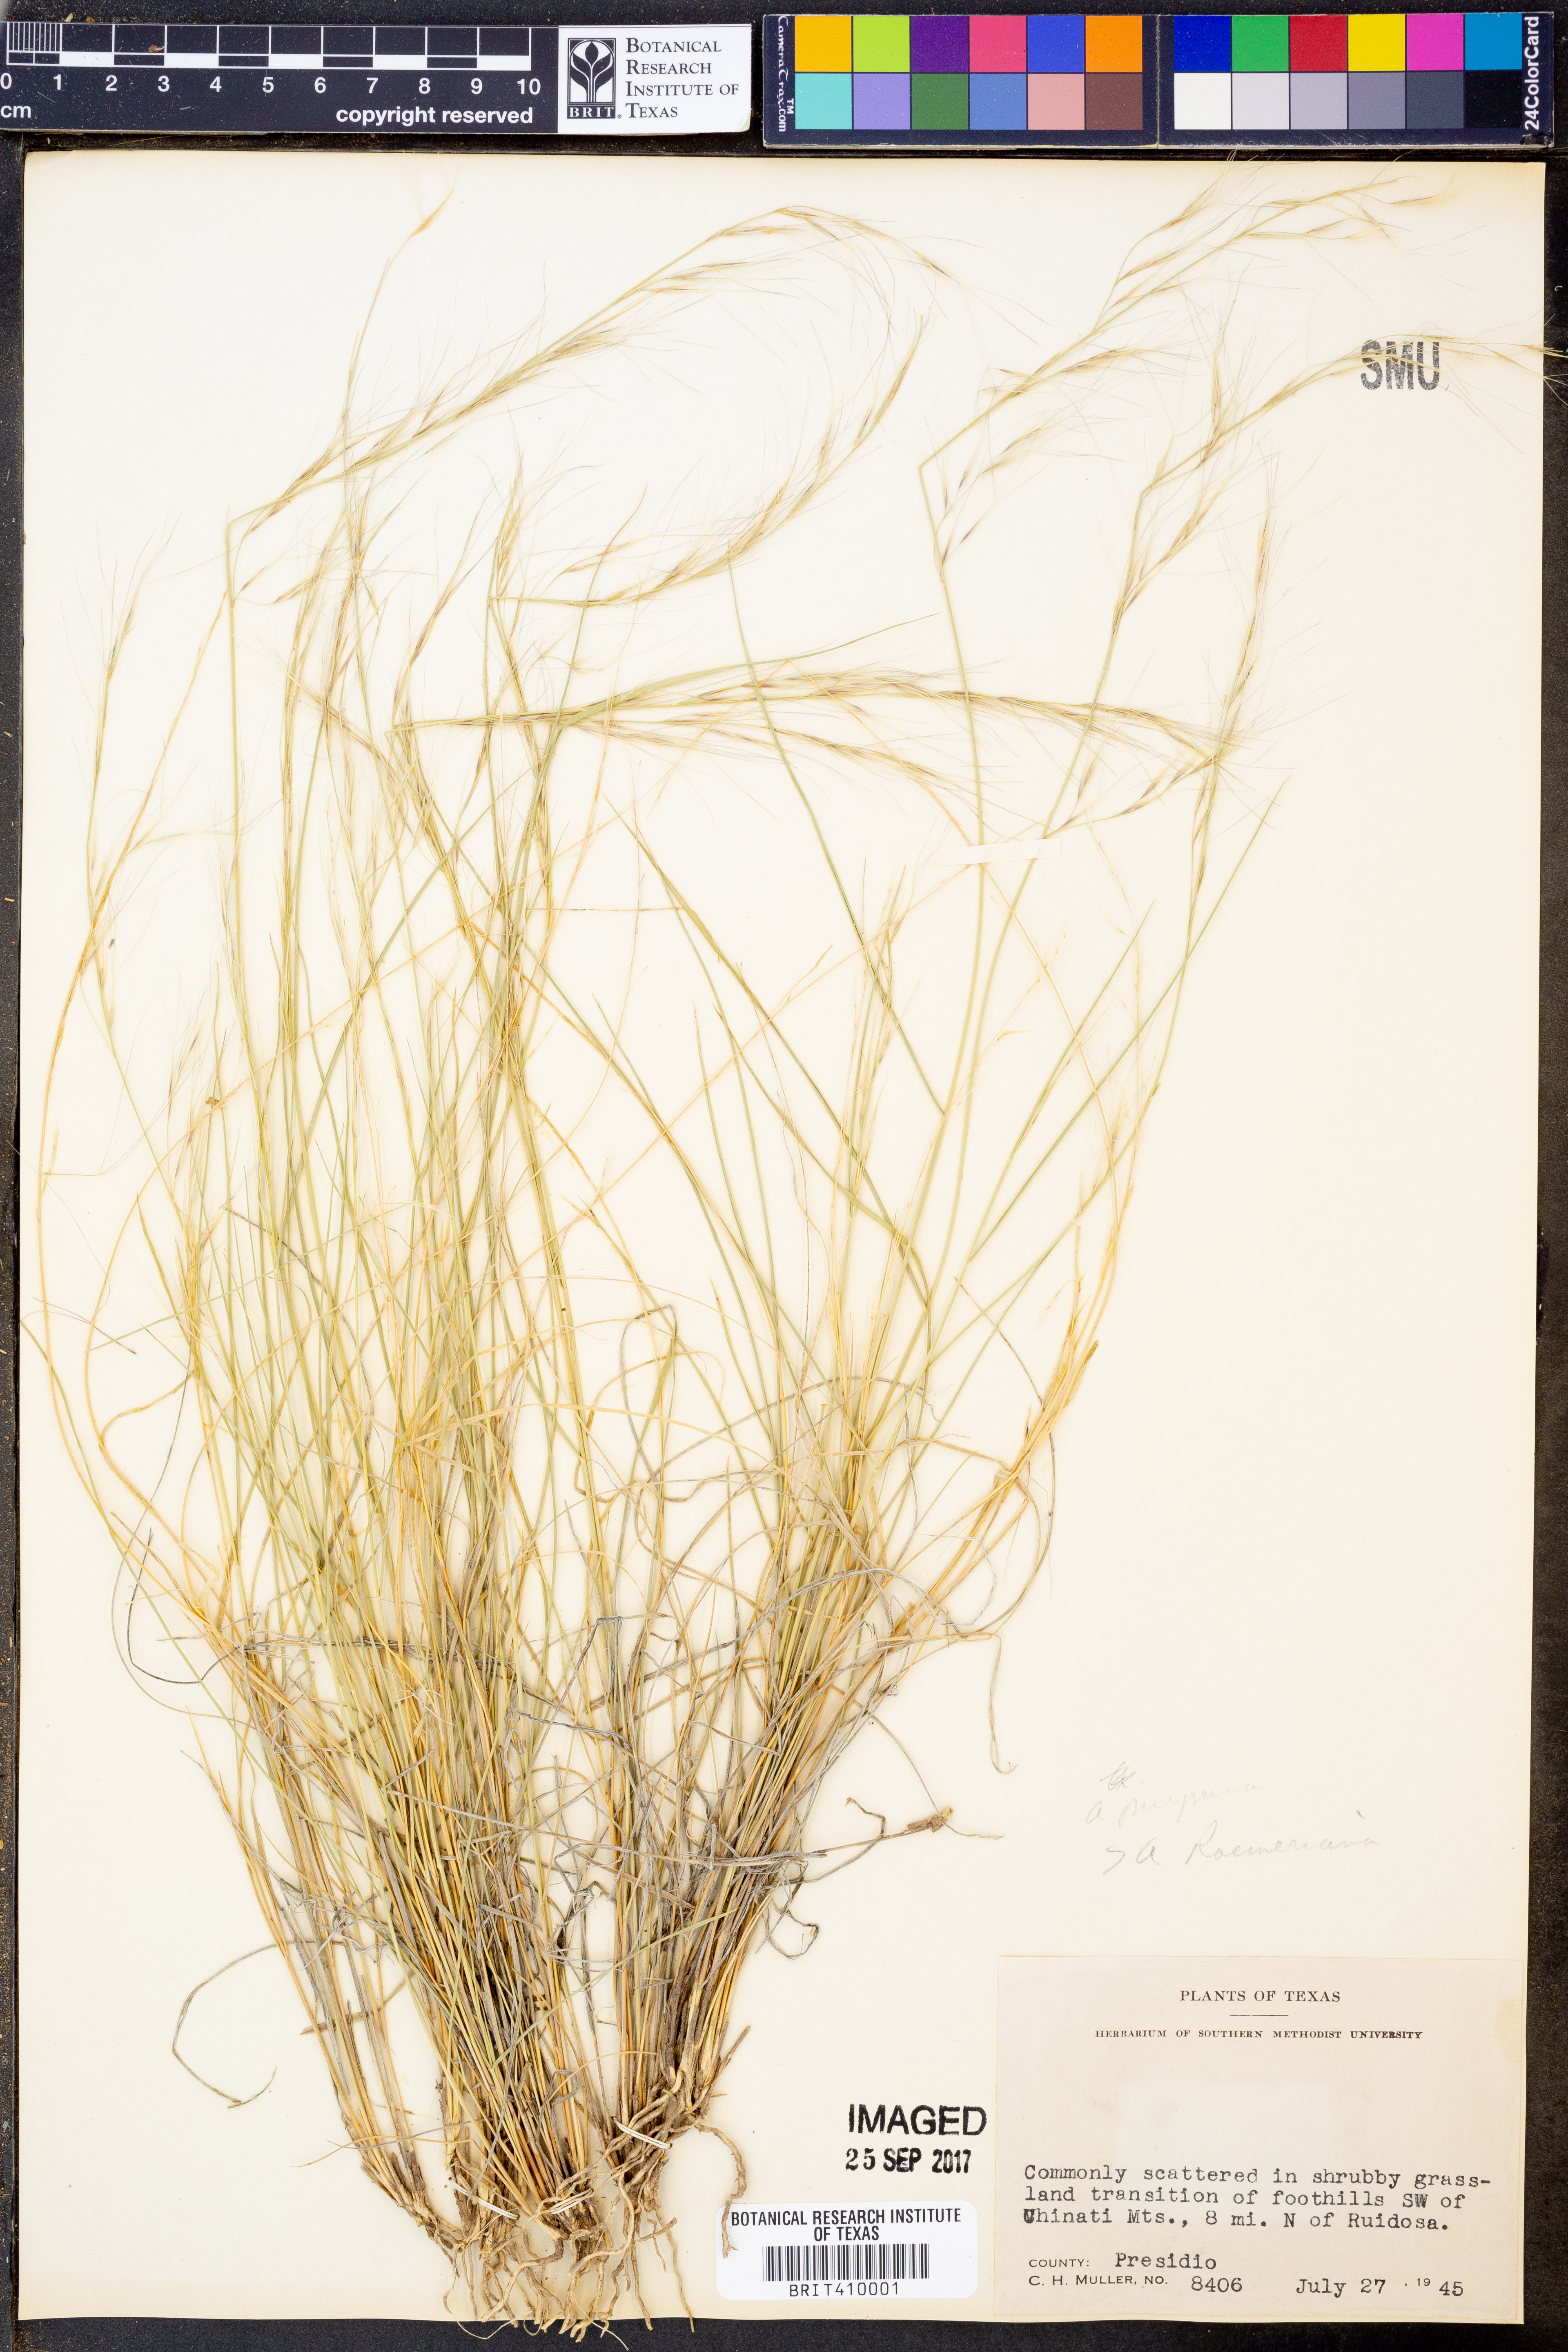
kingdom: Plantae
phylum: Tracheophyta
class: Liliopsida
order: Poales
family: Poaceae
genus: Aristida
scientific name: Aristida purpurea
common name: Purple threeawn
